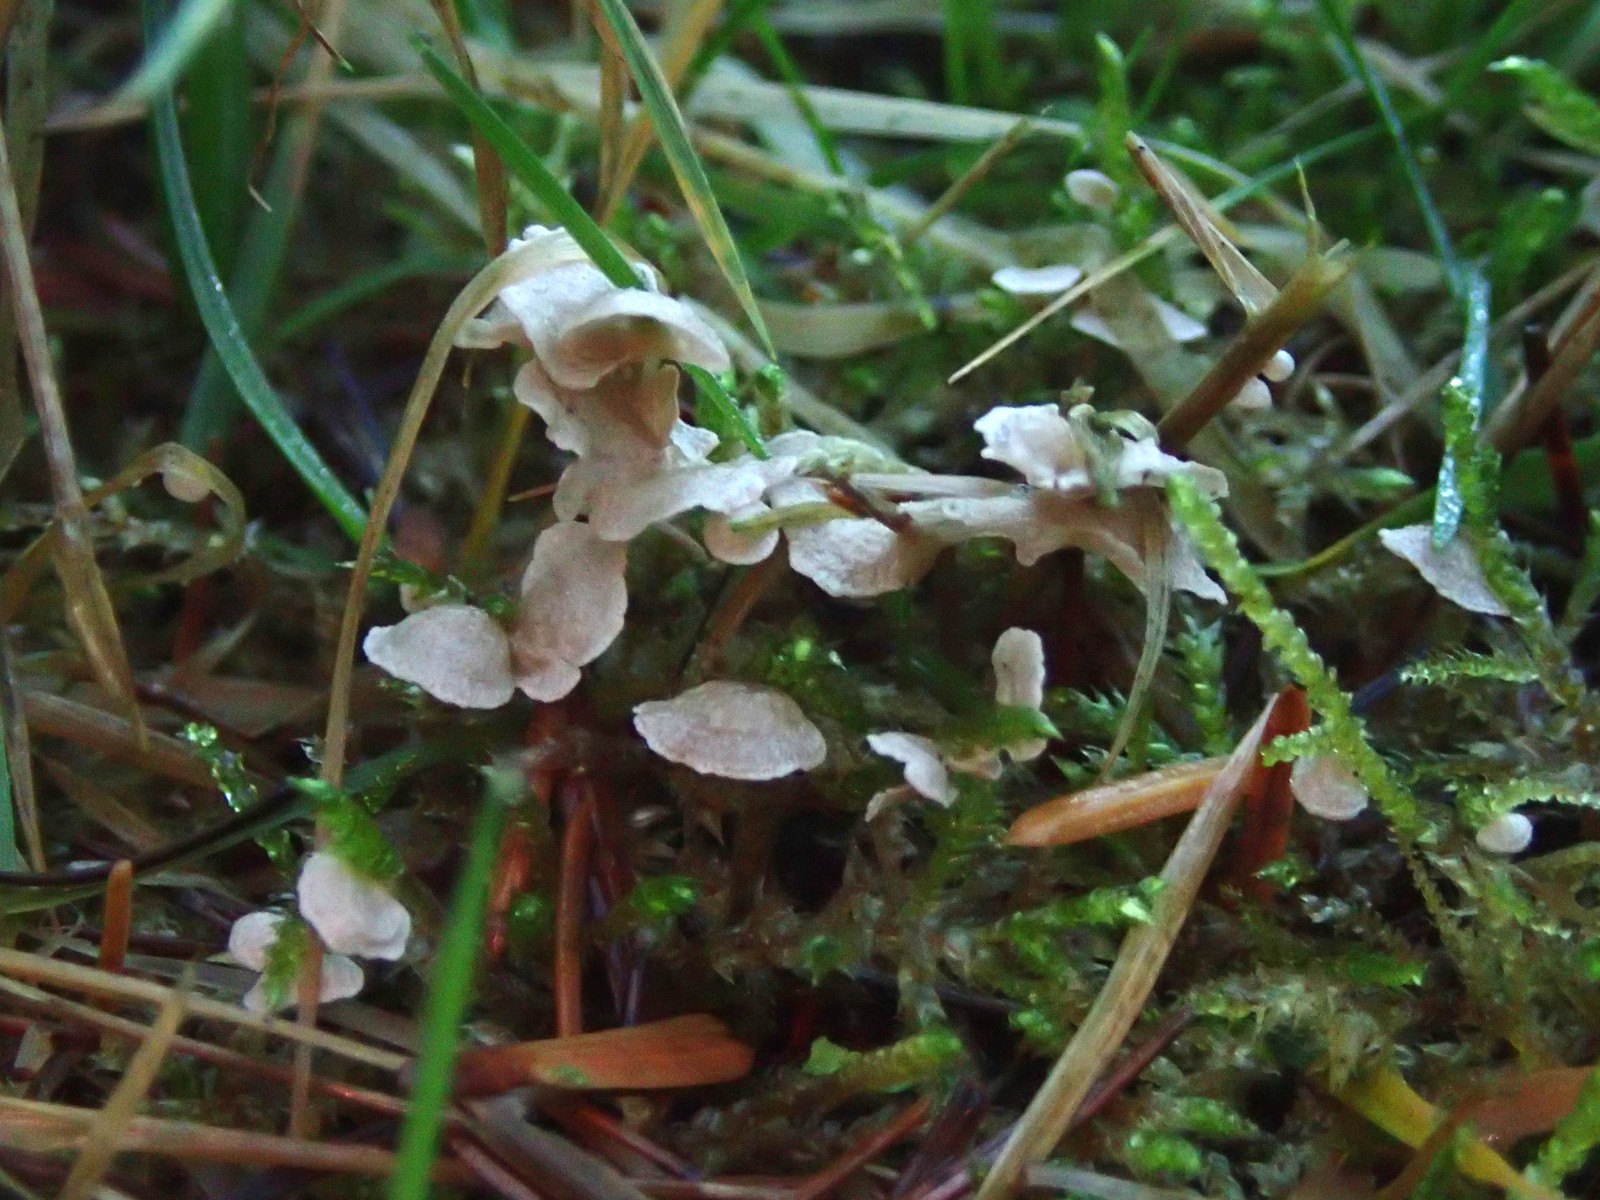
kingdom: Fungi
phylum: Basidiomycota
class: Agaricomycetes
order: Agaricales
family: Hygrophoraceae
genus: Arrhenia
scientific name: Arrhenia retiruga
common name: lille fontænehat
